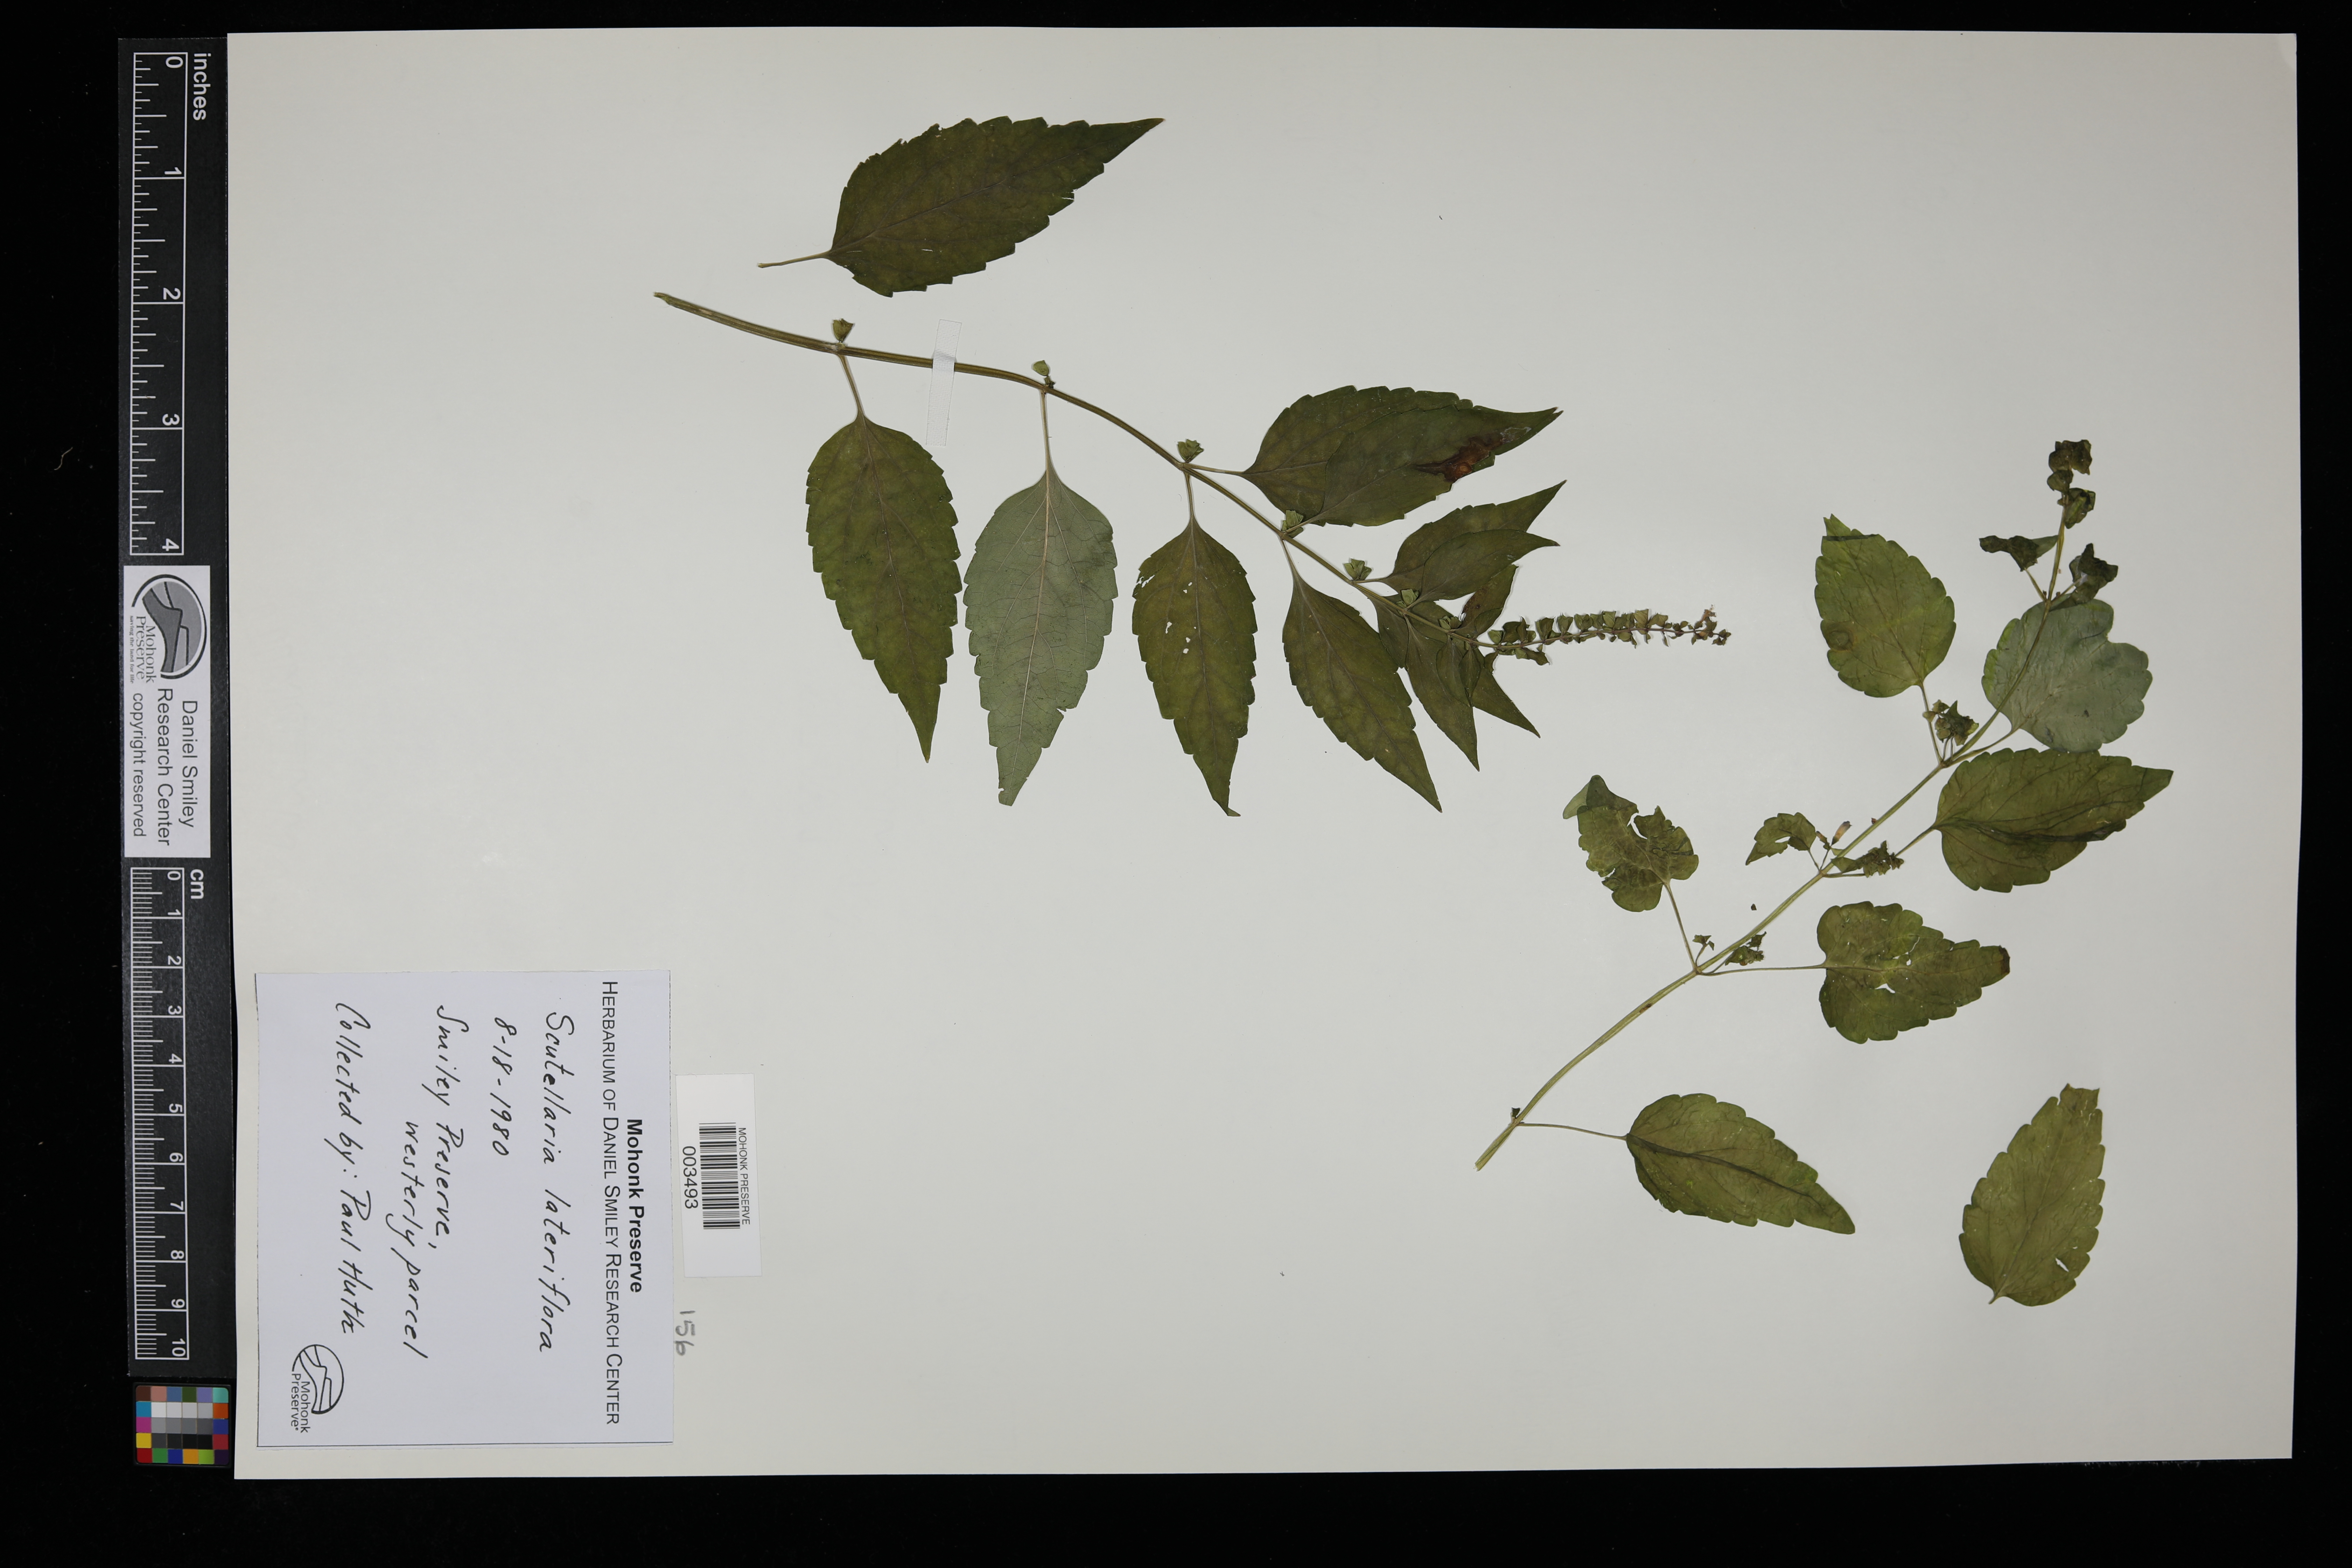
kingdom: Plantae
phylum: Tracheophyta
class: Magnoliopsida
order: Lamiales
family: Lamiaceae
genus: Scutellaria
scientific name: Scutellaria lateriflora
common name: Blue skullcap
